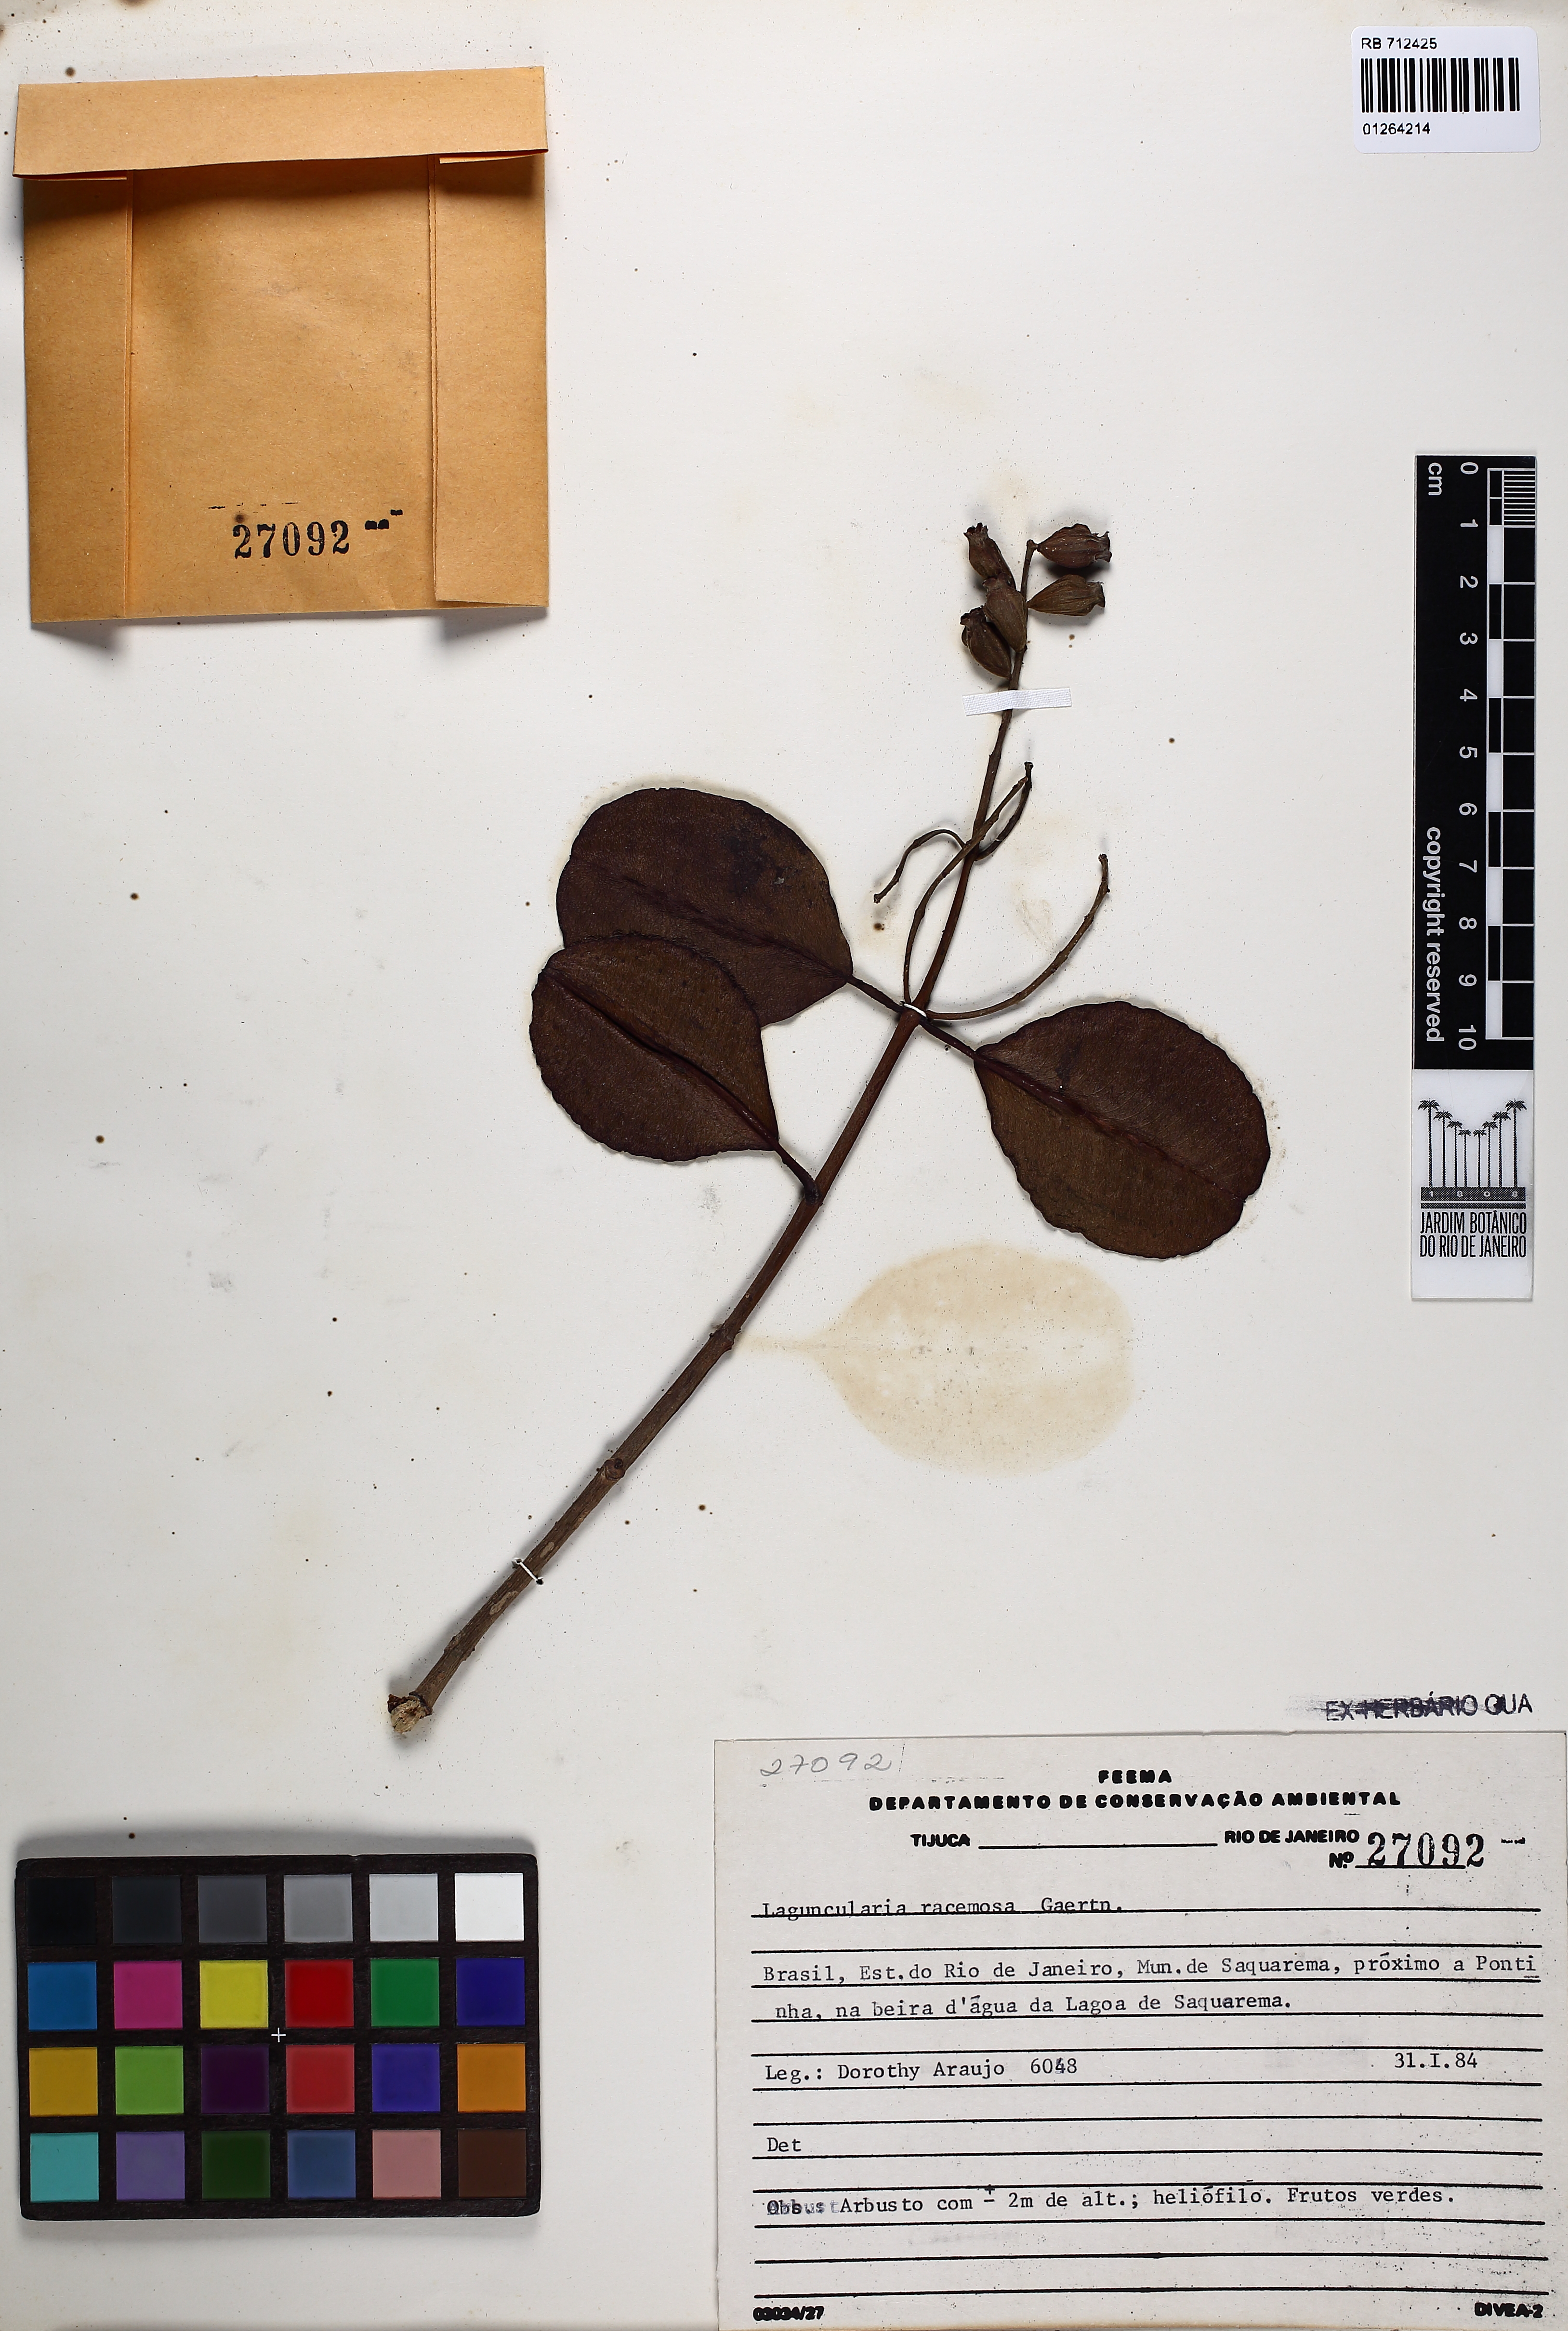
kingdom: Plantae
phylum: Tracheophyta
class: Magnoliopsida
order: Myrtales
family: Combretaceae
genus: Laguncularia
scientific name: Laguncularia racemosa
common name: White mangrove
